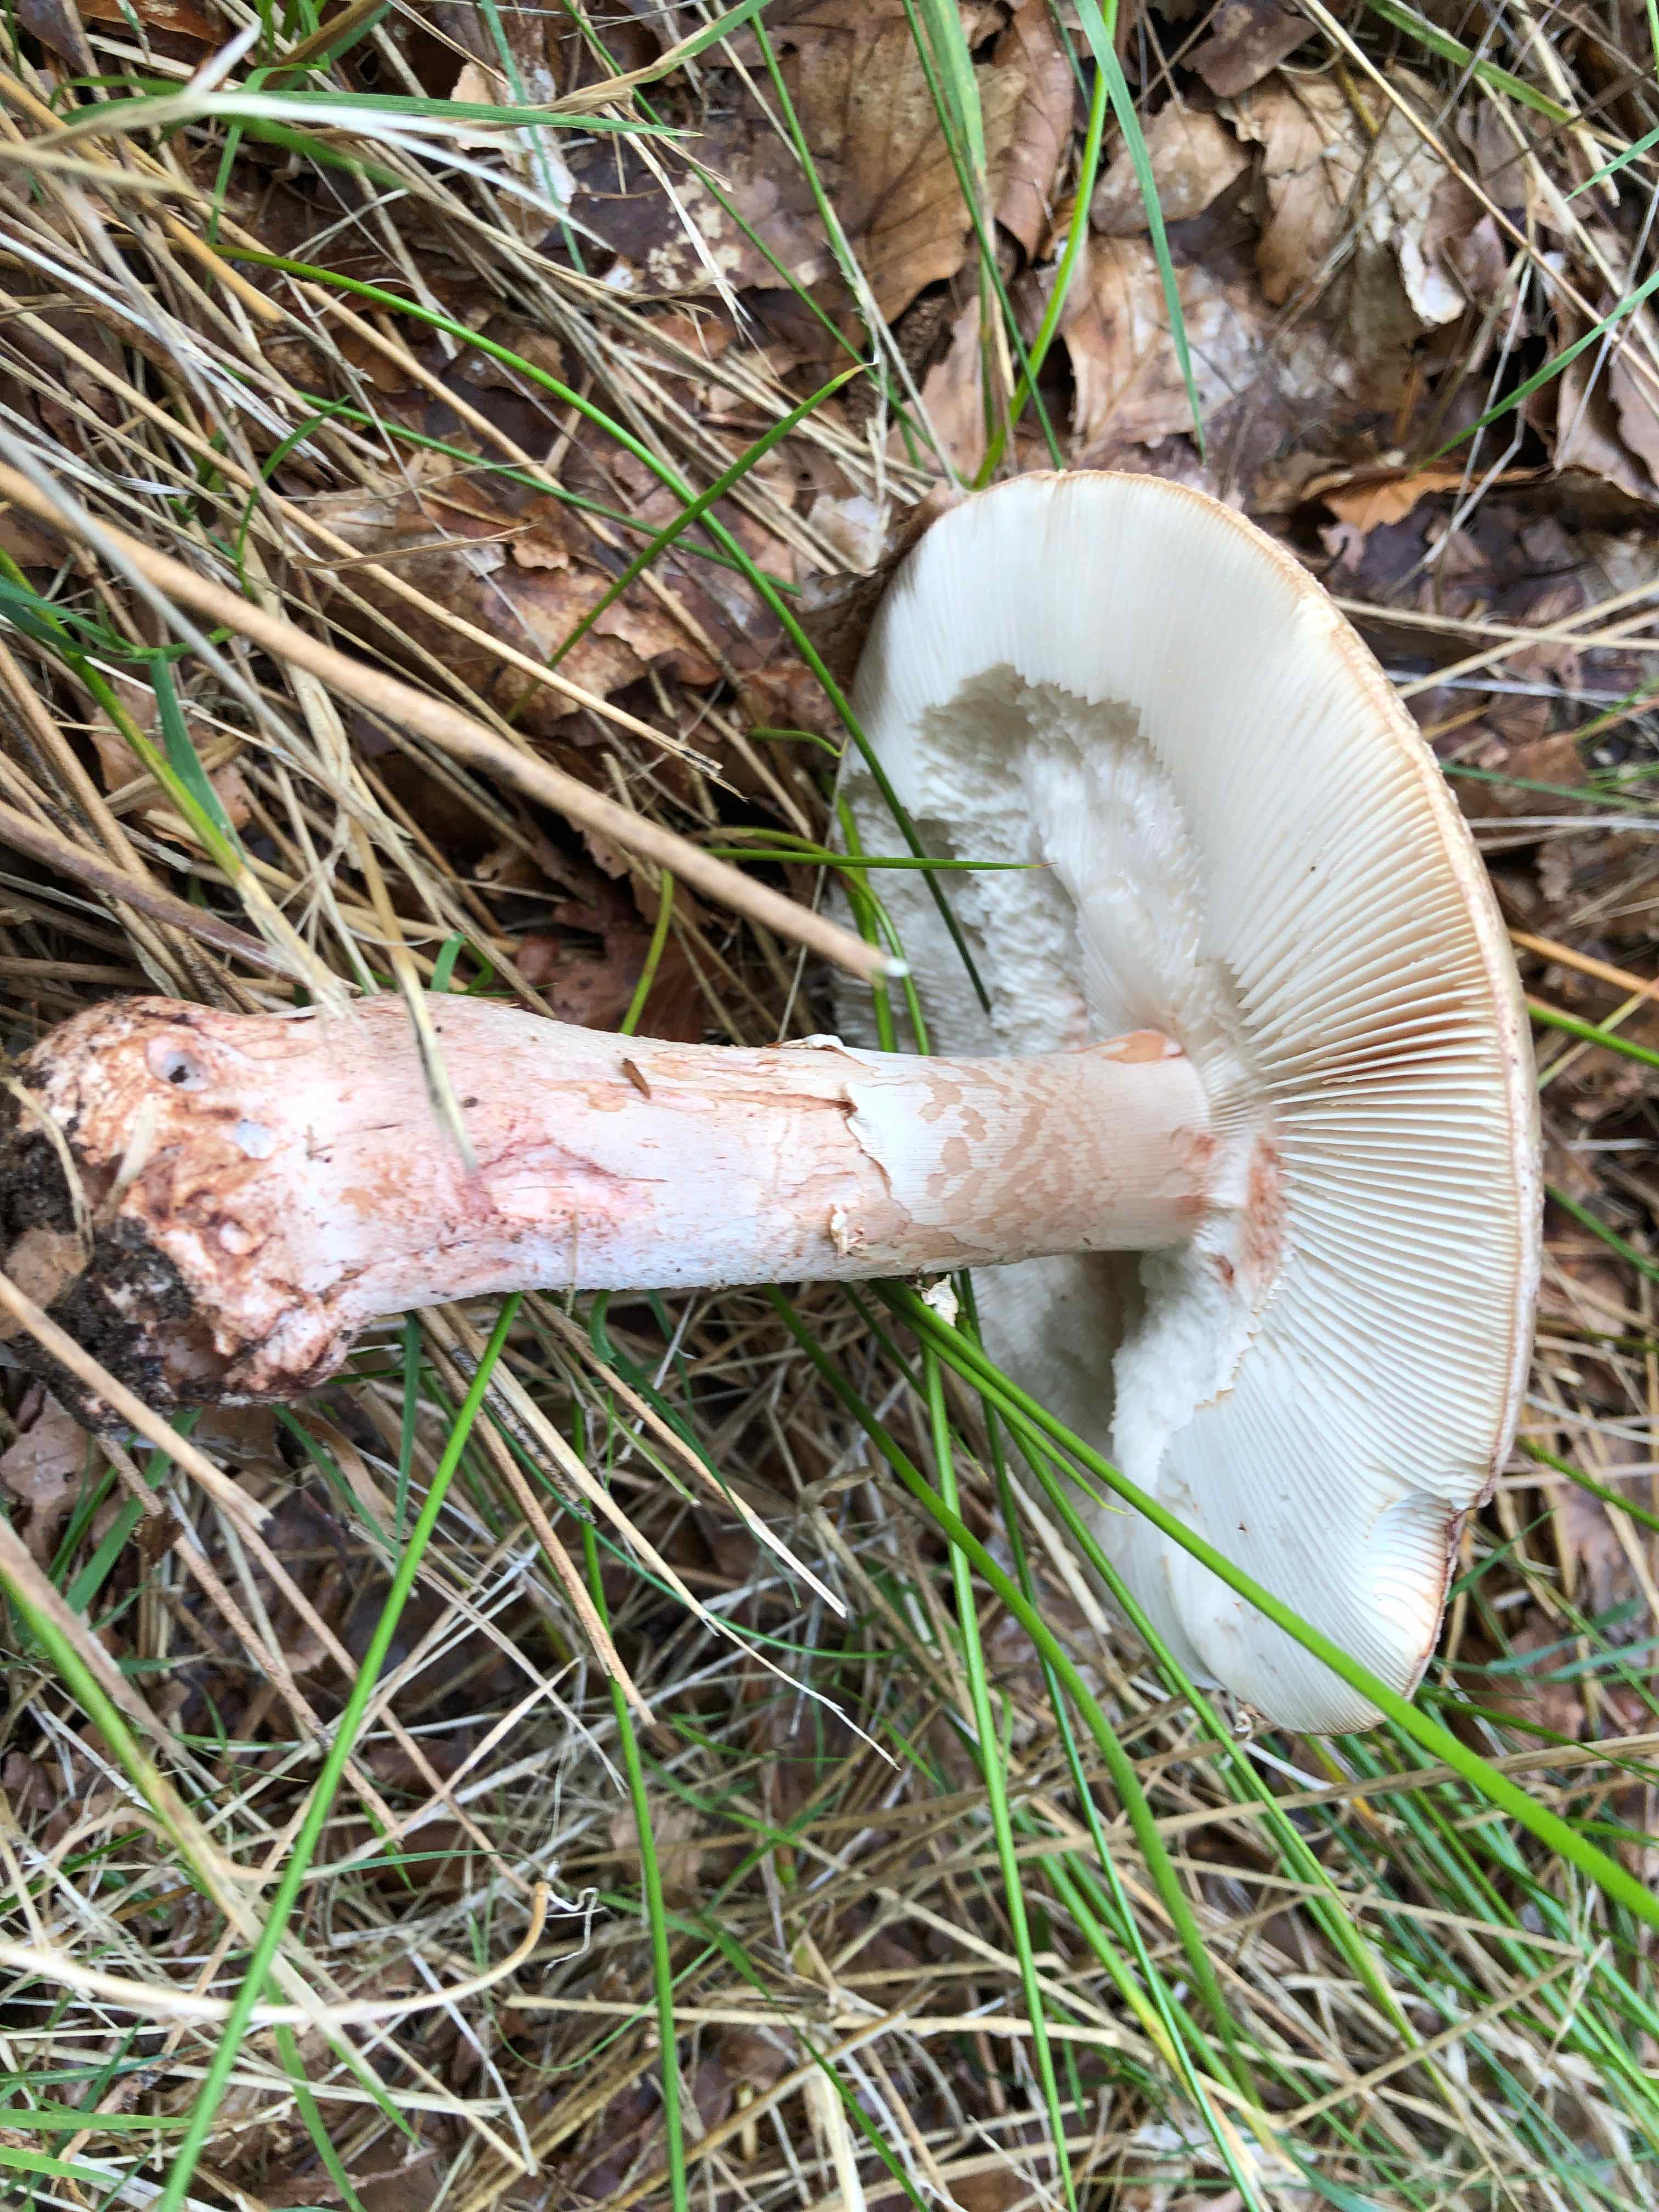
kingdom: Fungi
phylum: Basidiomycota
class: Agaricomycetes
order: Agaricales
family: Amanitaceae
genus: Amanita
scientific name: Amanita rubescens
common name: rødmende fluesvamp
